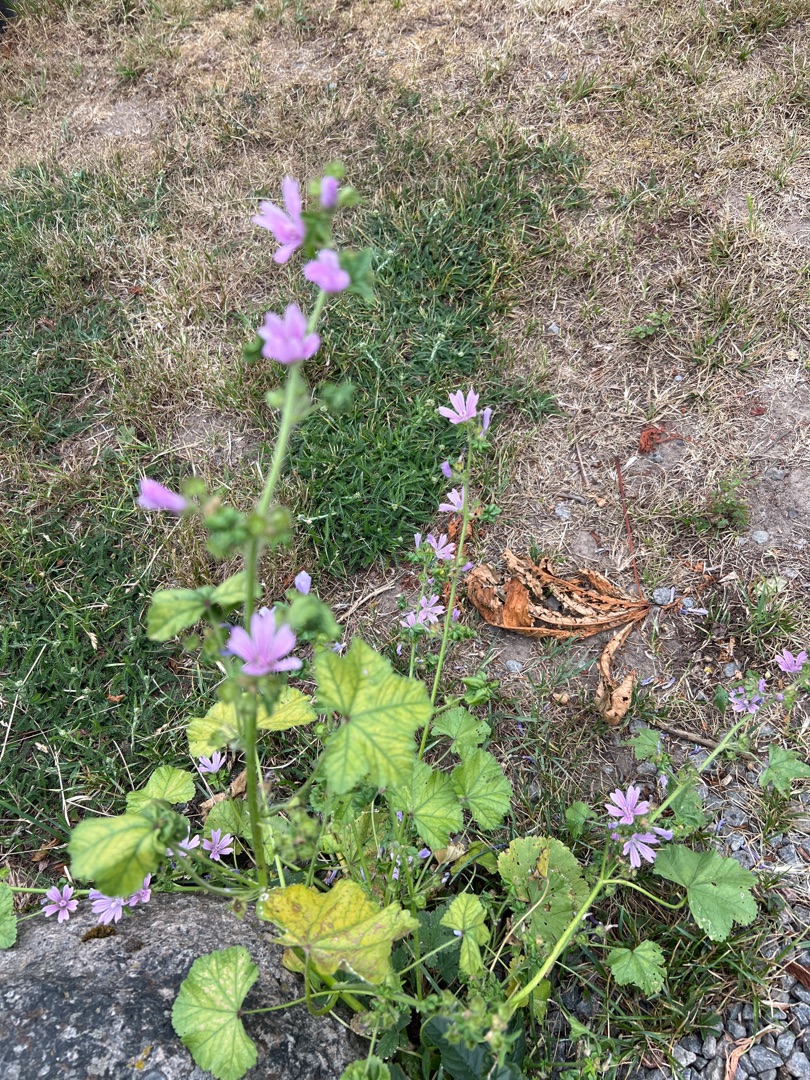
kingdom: Plantae
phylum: Tracheophyta
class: Magnoliopsida
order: Malvales
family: Malvaceae
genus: Malva
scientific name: Malva sylvestris
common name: Almindelig katost
